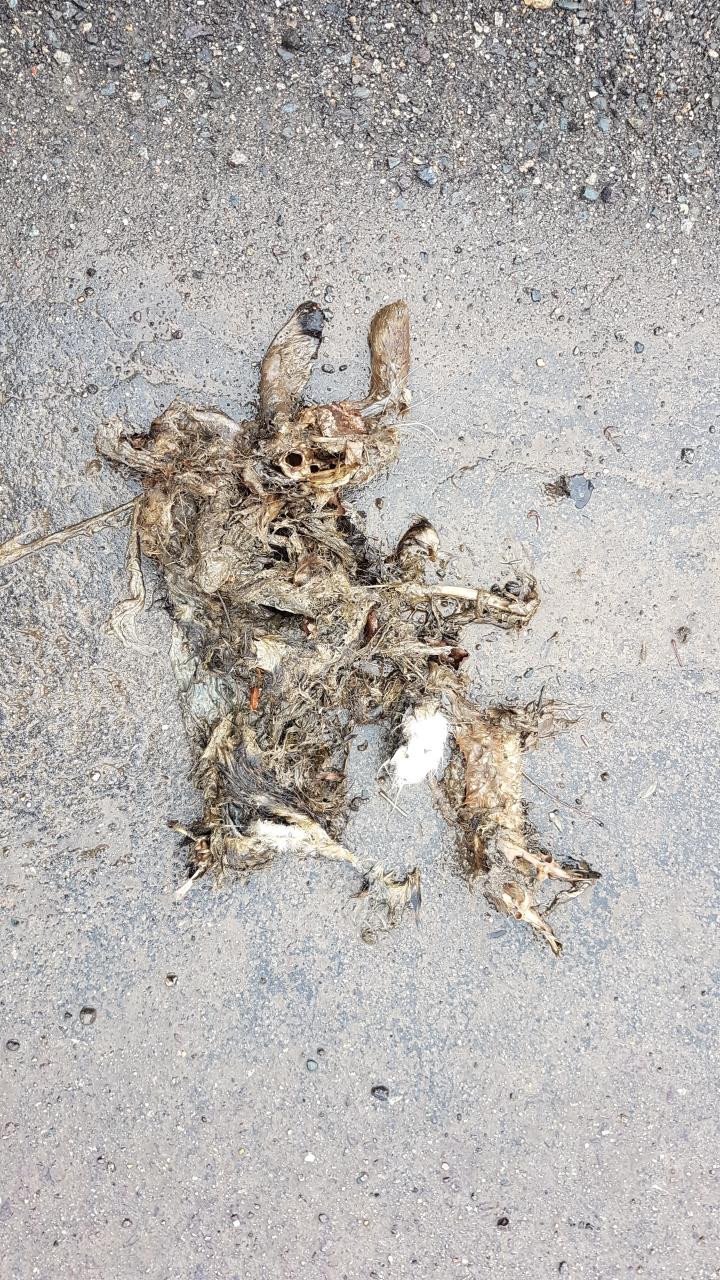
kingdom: Animalia
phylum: Chordata
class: Mammalia
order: Lagomorpha
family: Leporidae
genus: Lepus
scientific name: Lepus europaeus
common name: European hare
